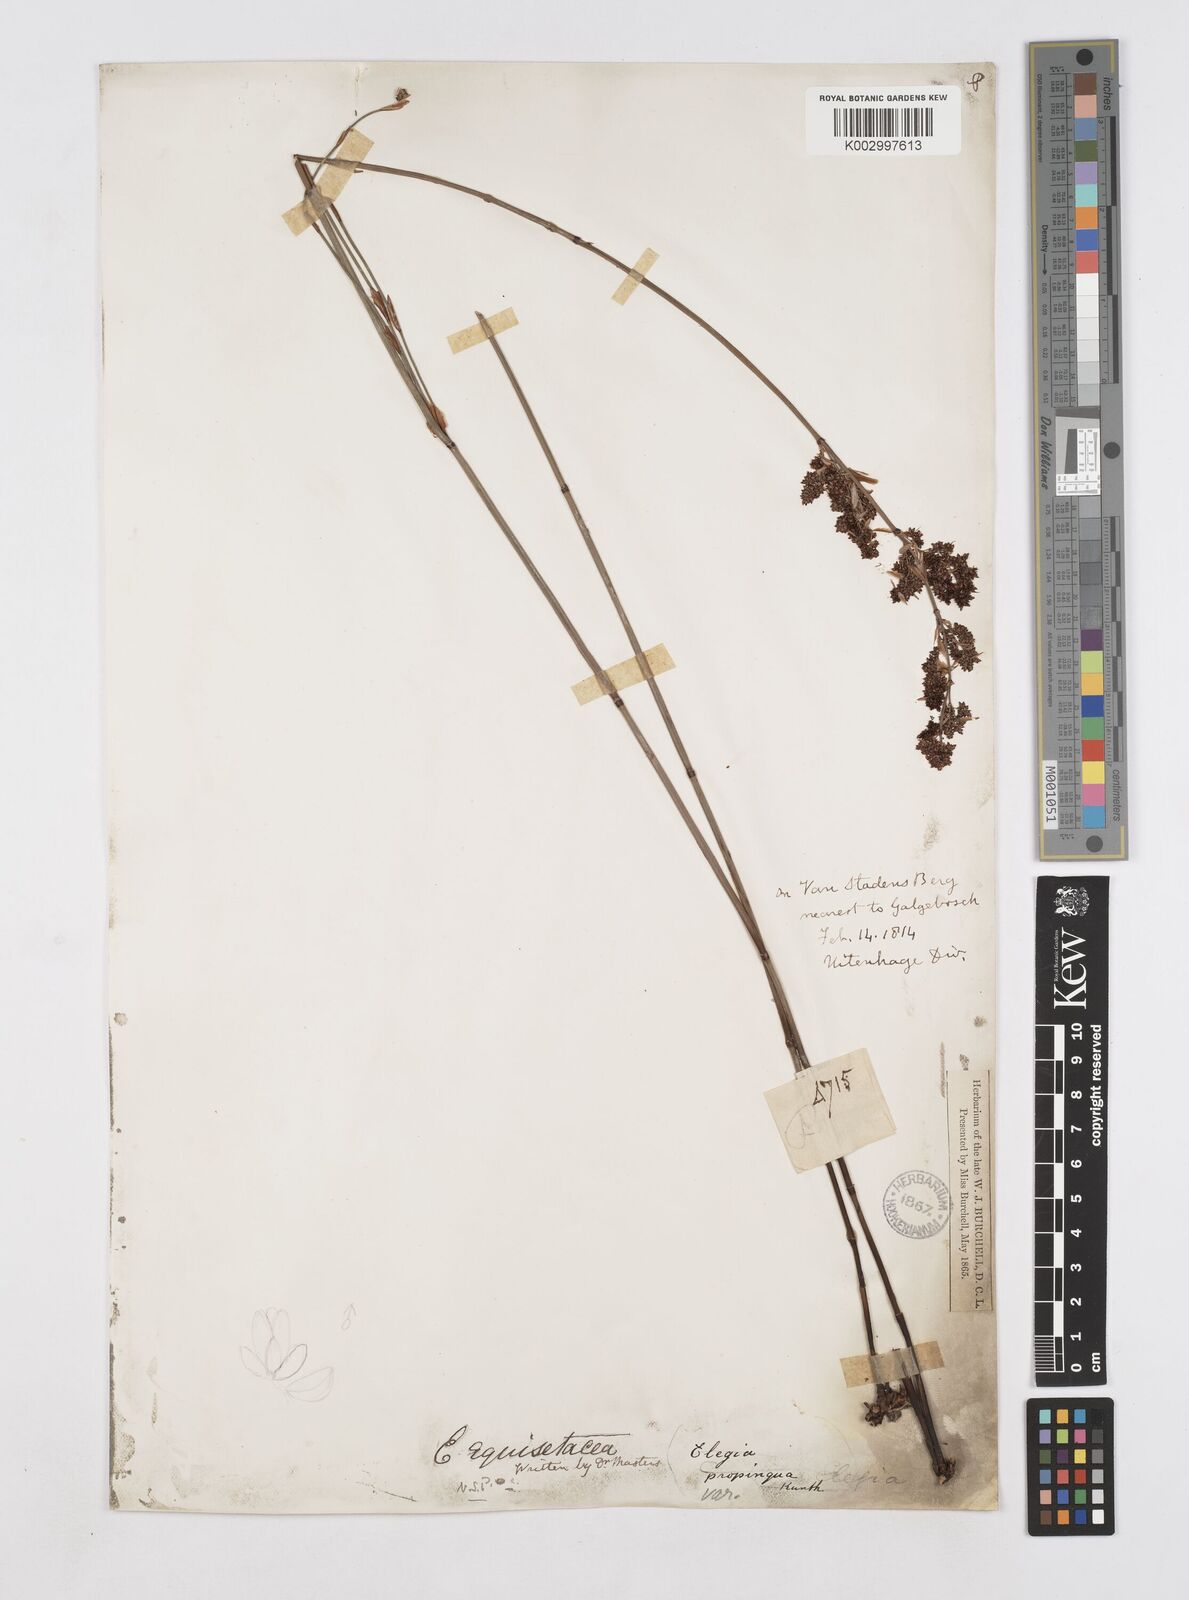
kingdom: Plantae
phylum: Tracheophyta
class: Liliopsida
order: Poales
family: Restionaceae
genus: Elegia
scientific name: Elegia equisetacea
